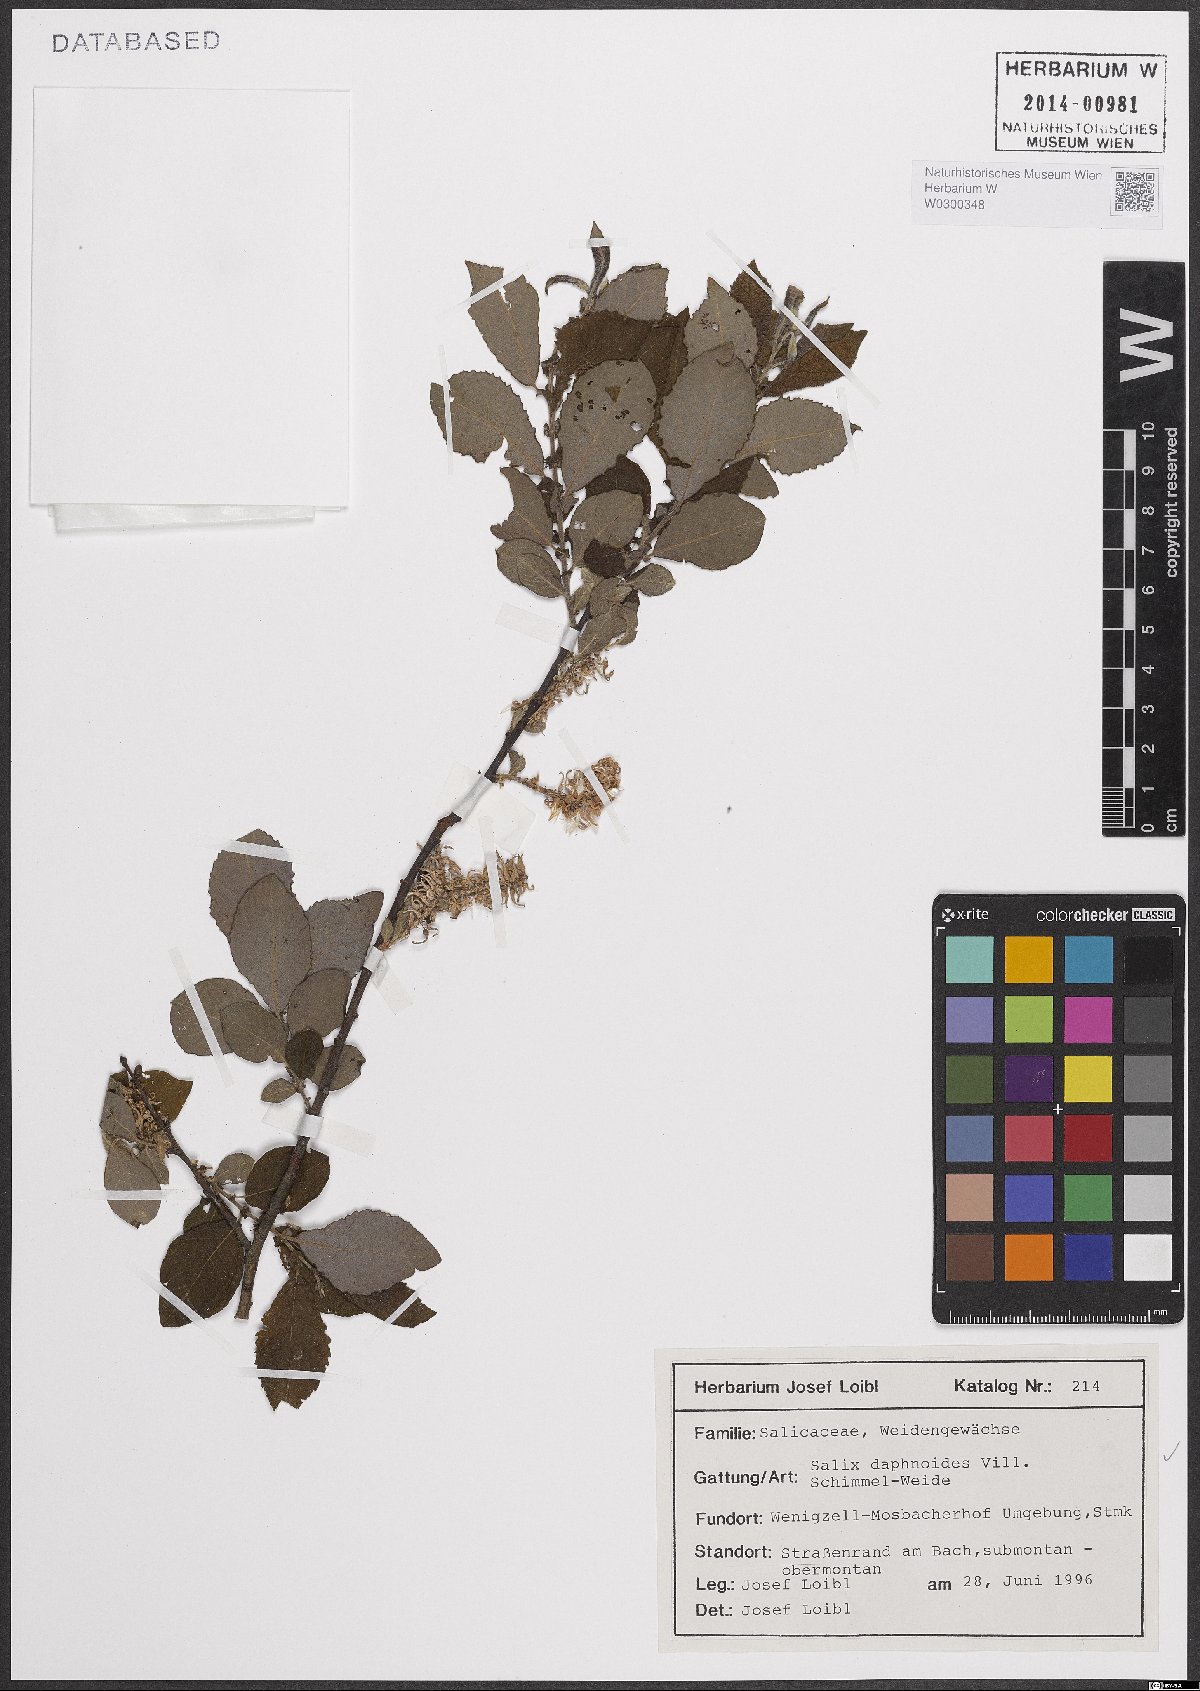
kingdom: Plantae
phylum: Tracheophyta
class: Magnoliopsida
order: Malpighiales
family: Salicaceae
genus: Salix
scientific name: Salix daphnoides
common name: European violet-willow
